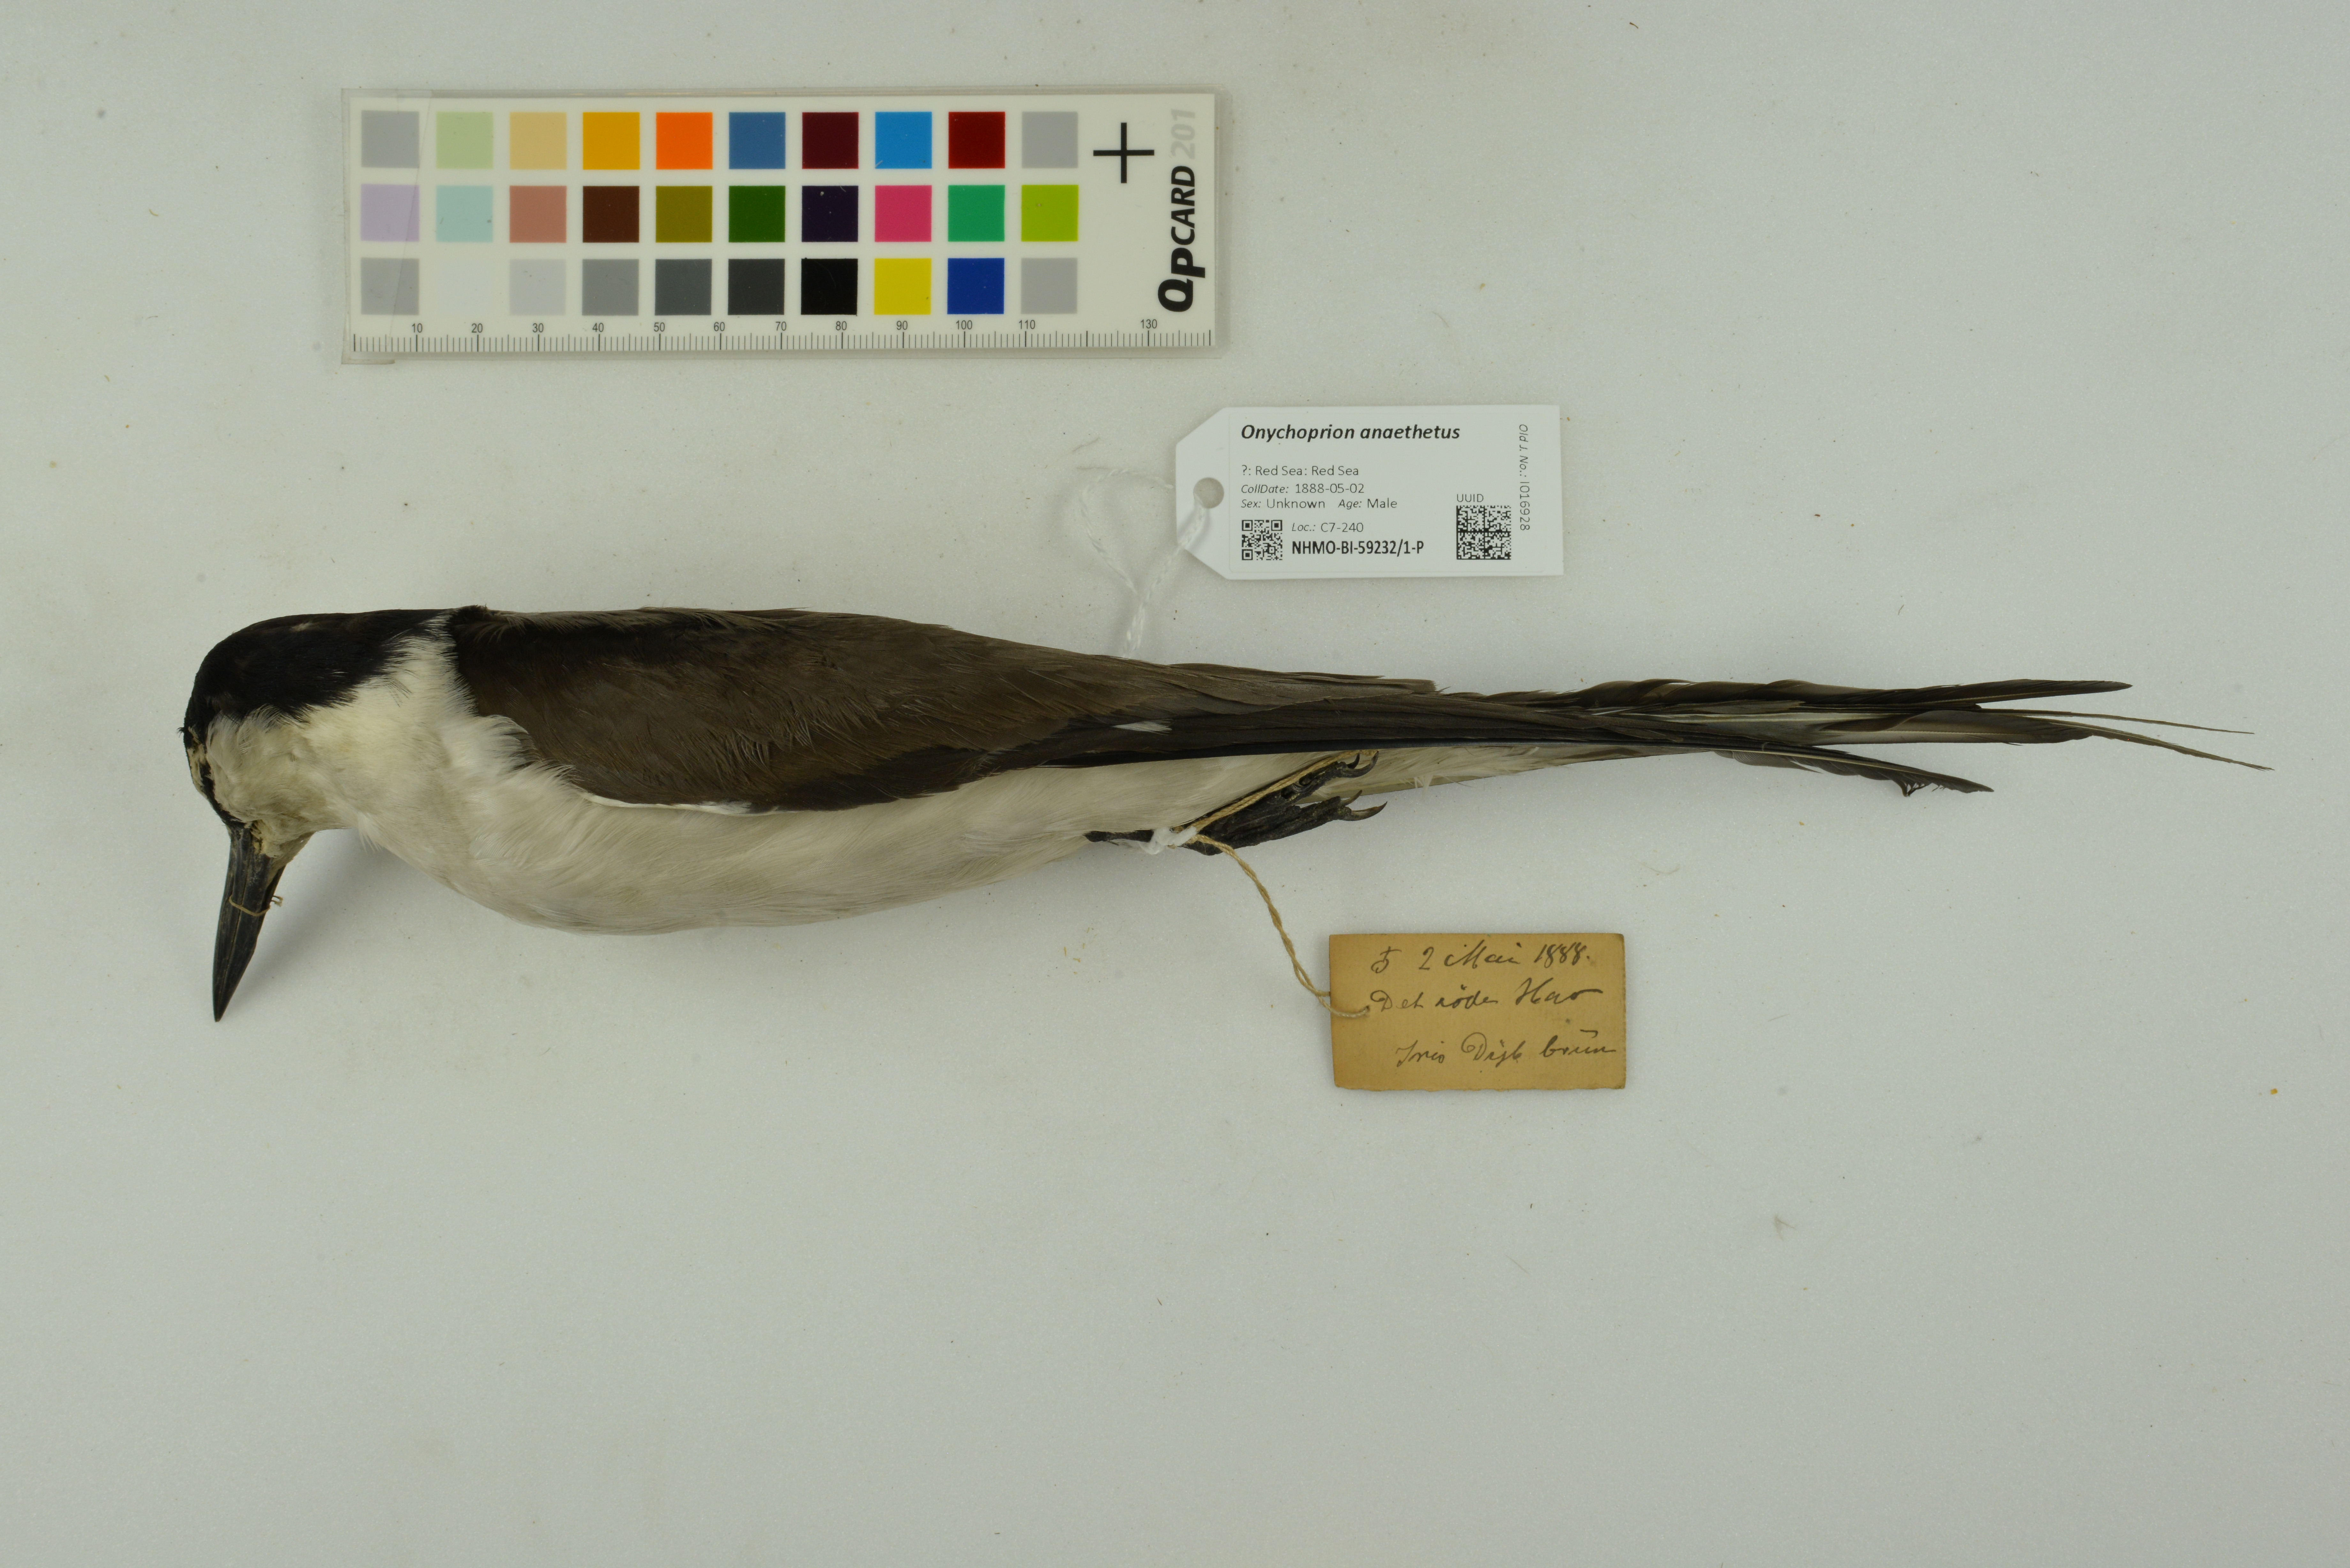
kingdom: Animalia
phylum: Chordata
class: Aves
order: Charadriiformes
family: Laridae
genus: Onychoprion
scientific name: Onychoprion anaethetus
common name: Bridled tern
